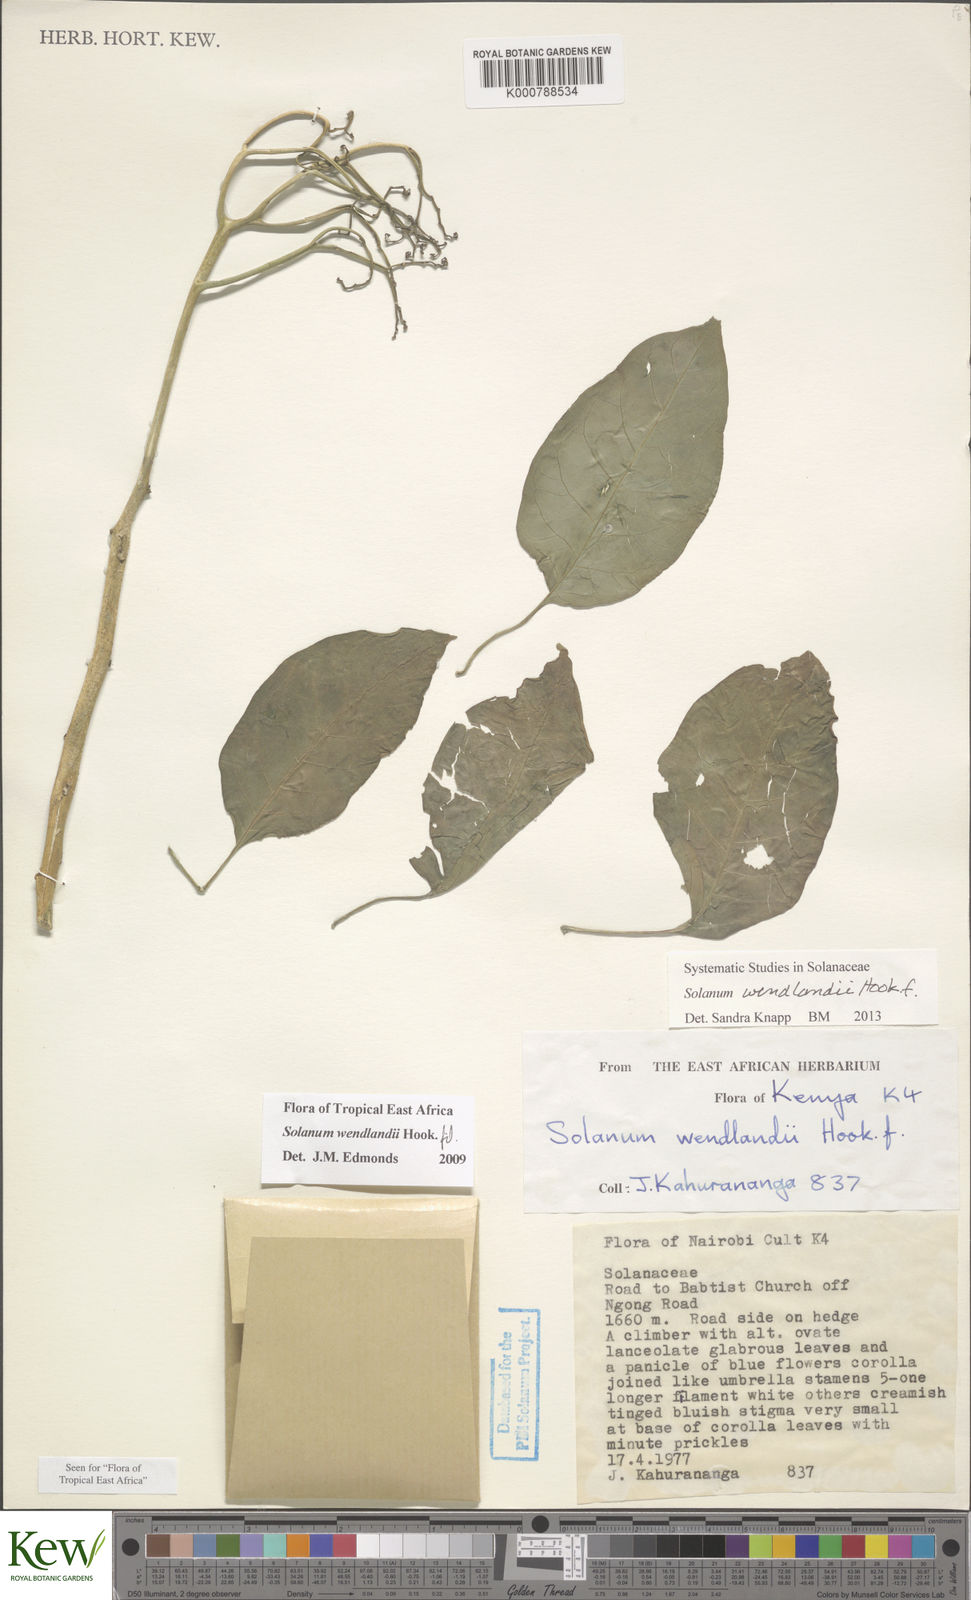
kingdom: Plantae
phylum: Tracheophyta
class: Magnoliopsida
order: Solanales
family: Solanaceae
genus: Solanum
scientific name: Solanum wendlandii
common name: Costa rican nightshade
